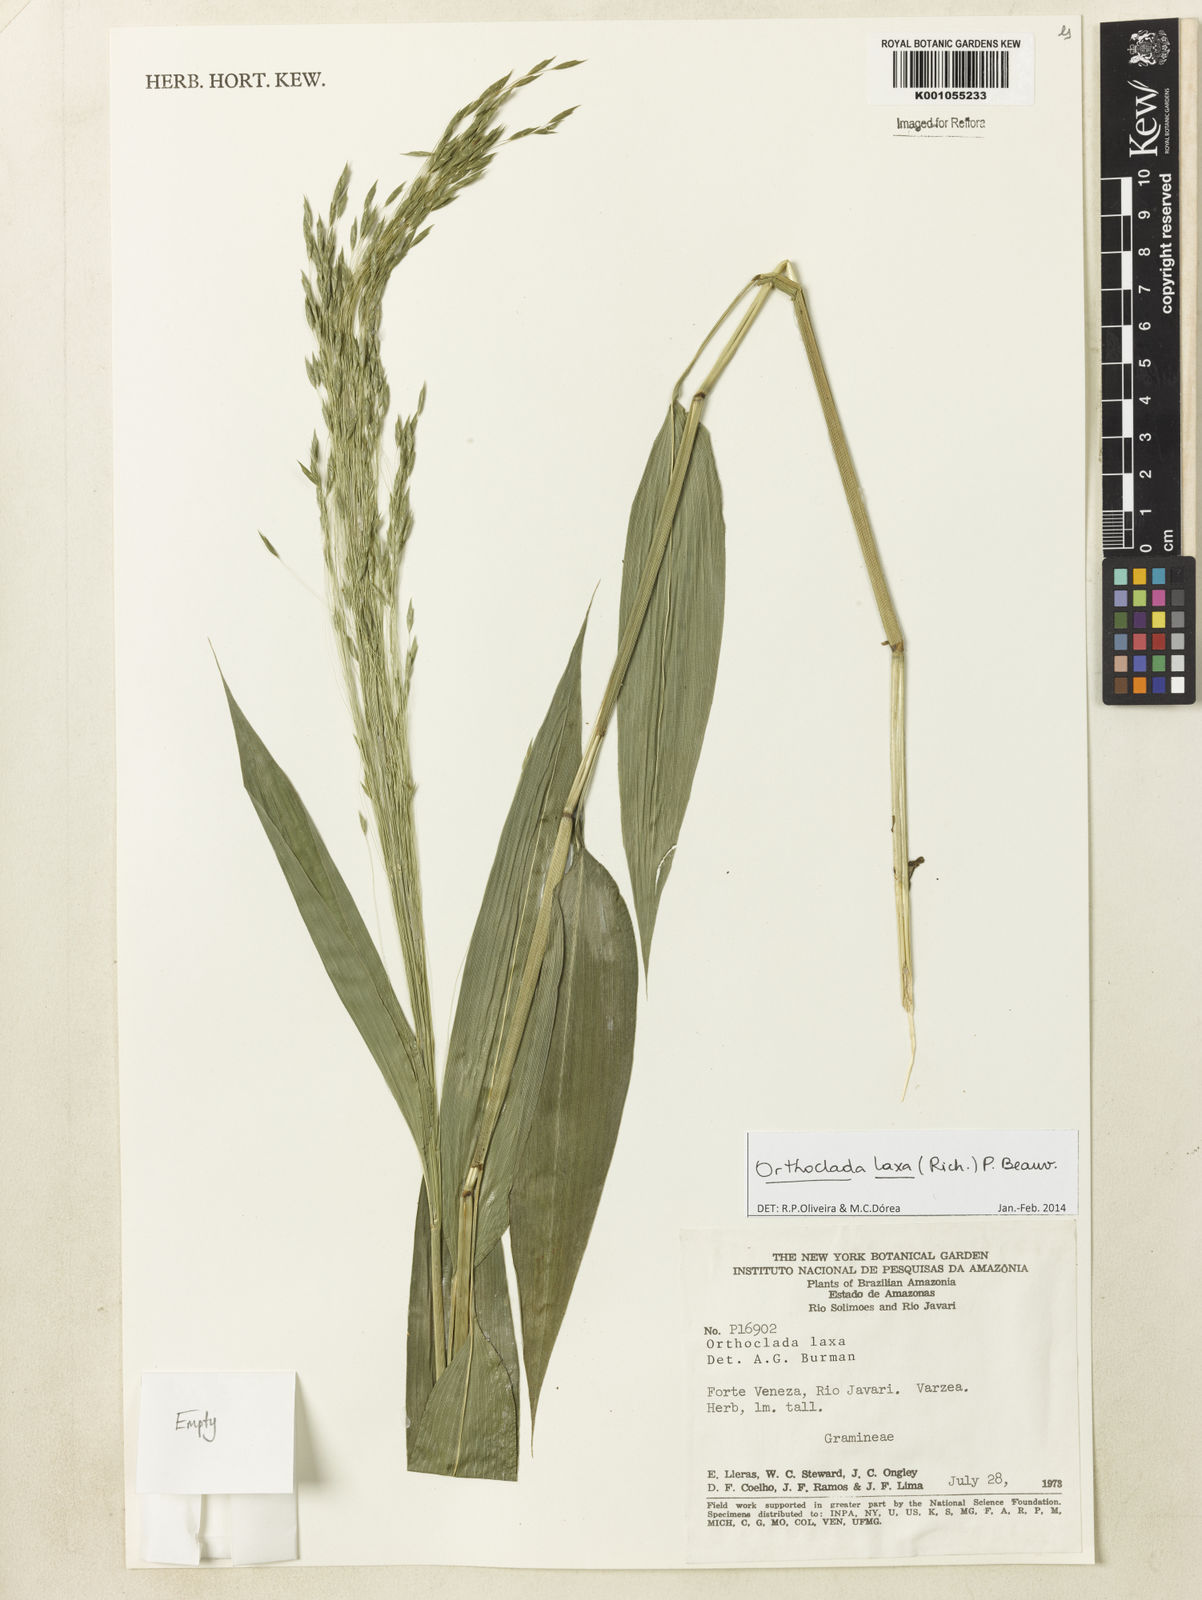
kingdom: Plantae
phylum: Tracheophyta
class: Liliopsida
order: Poales
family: Poaceae
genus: Orthoclada
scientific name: Orthoclada laxa
